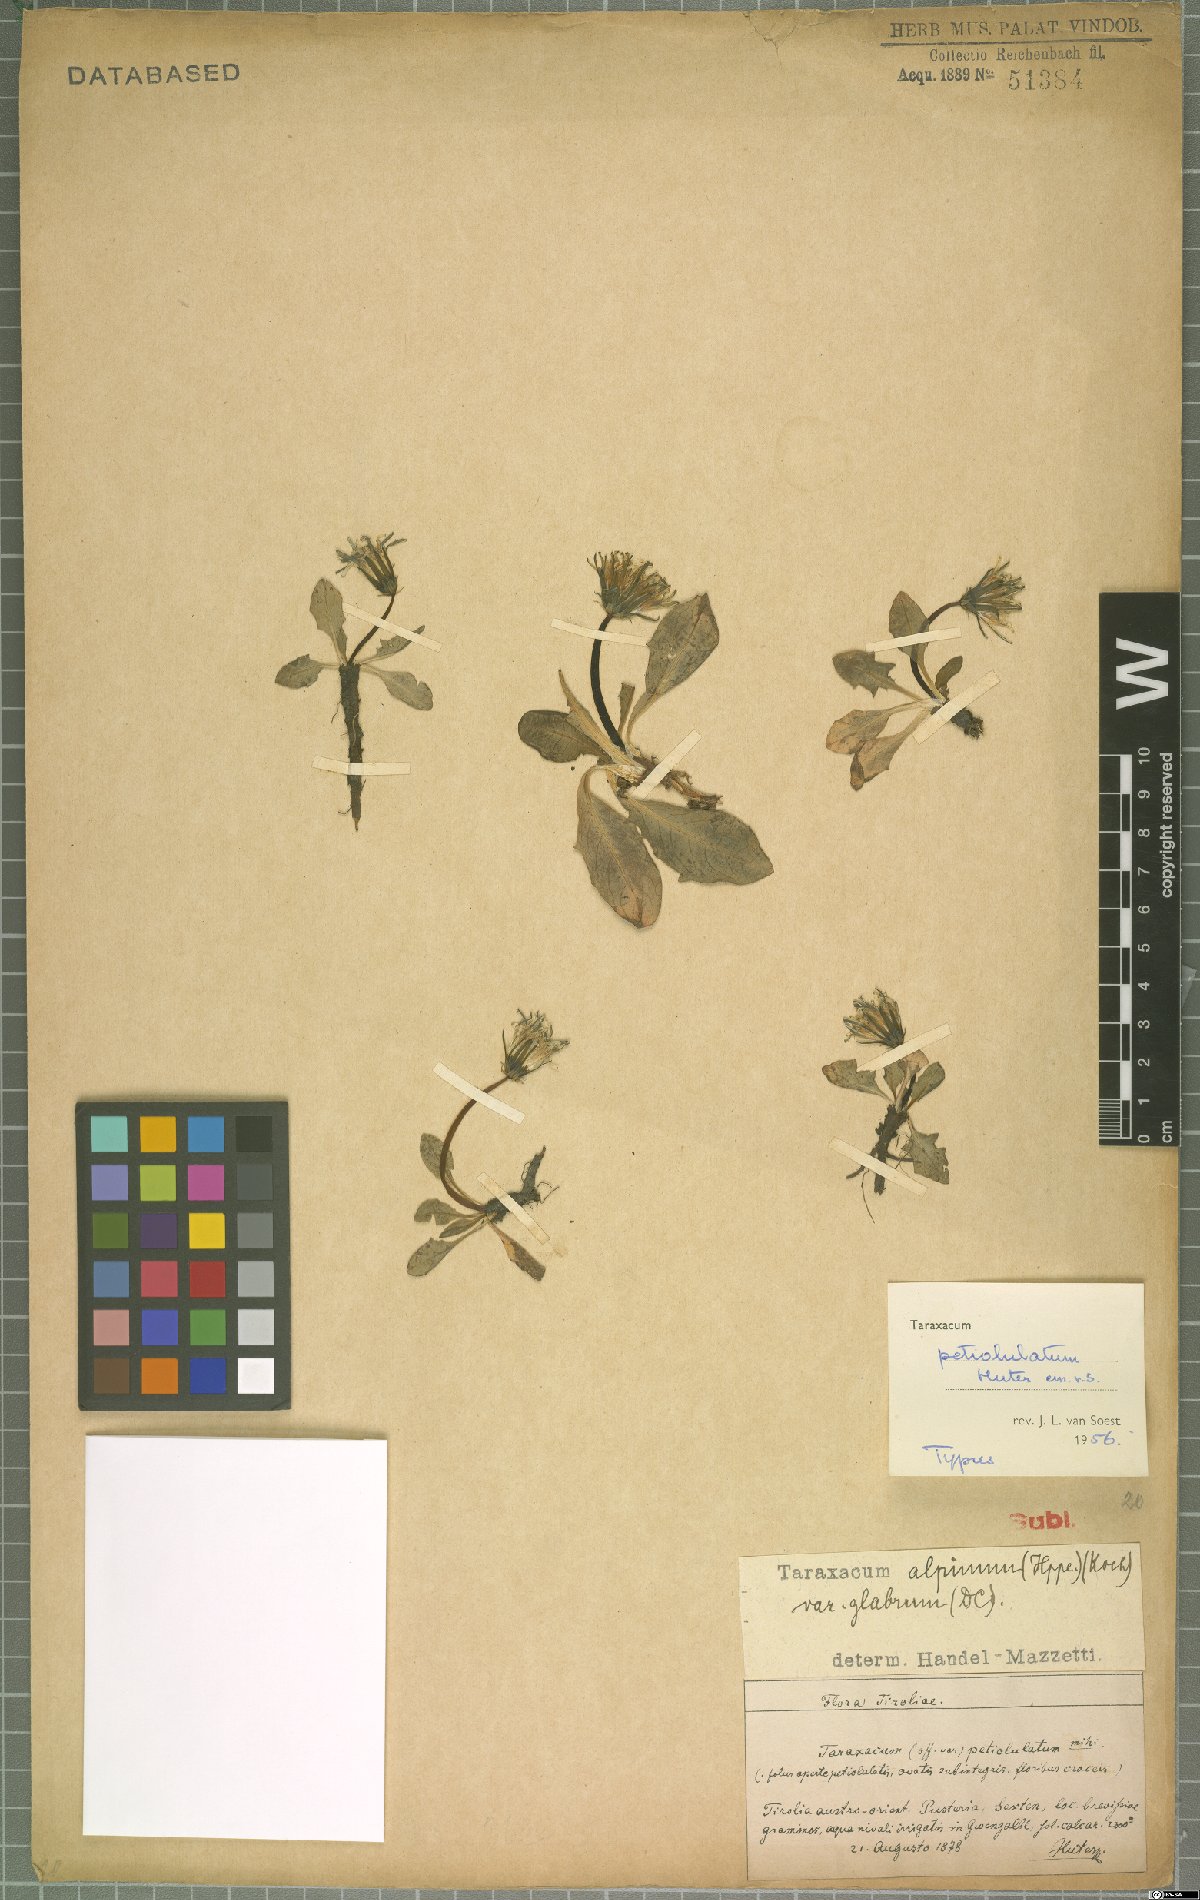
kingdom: Plantae
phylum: Tracheophyta
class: Magnoliopsida
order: Asterales
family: Asteraceae
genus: Taraxacum
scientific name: Taraxacum petiolulatum
